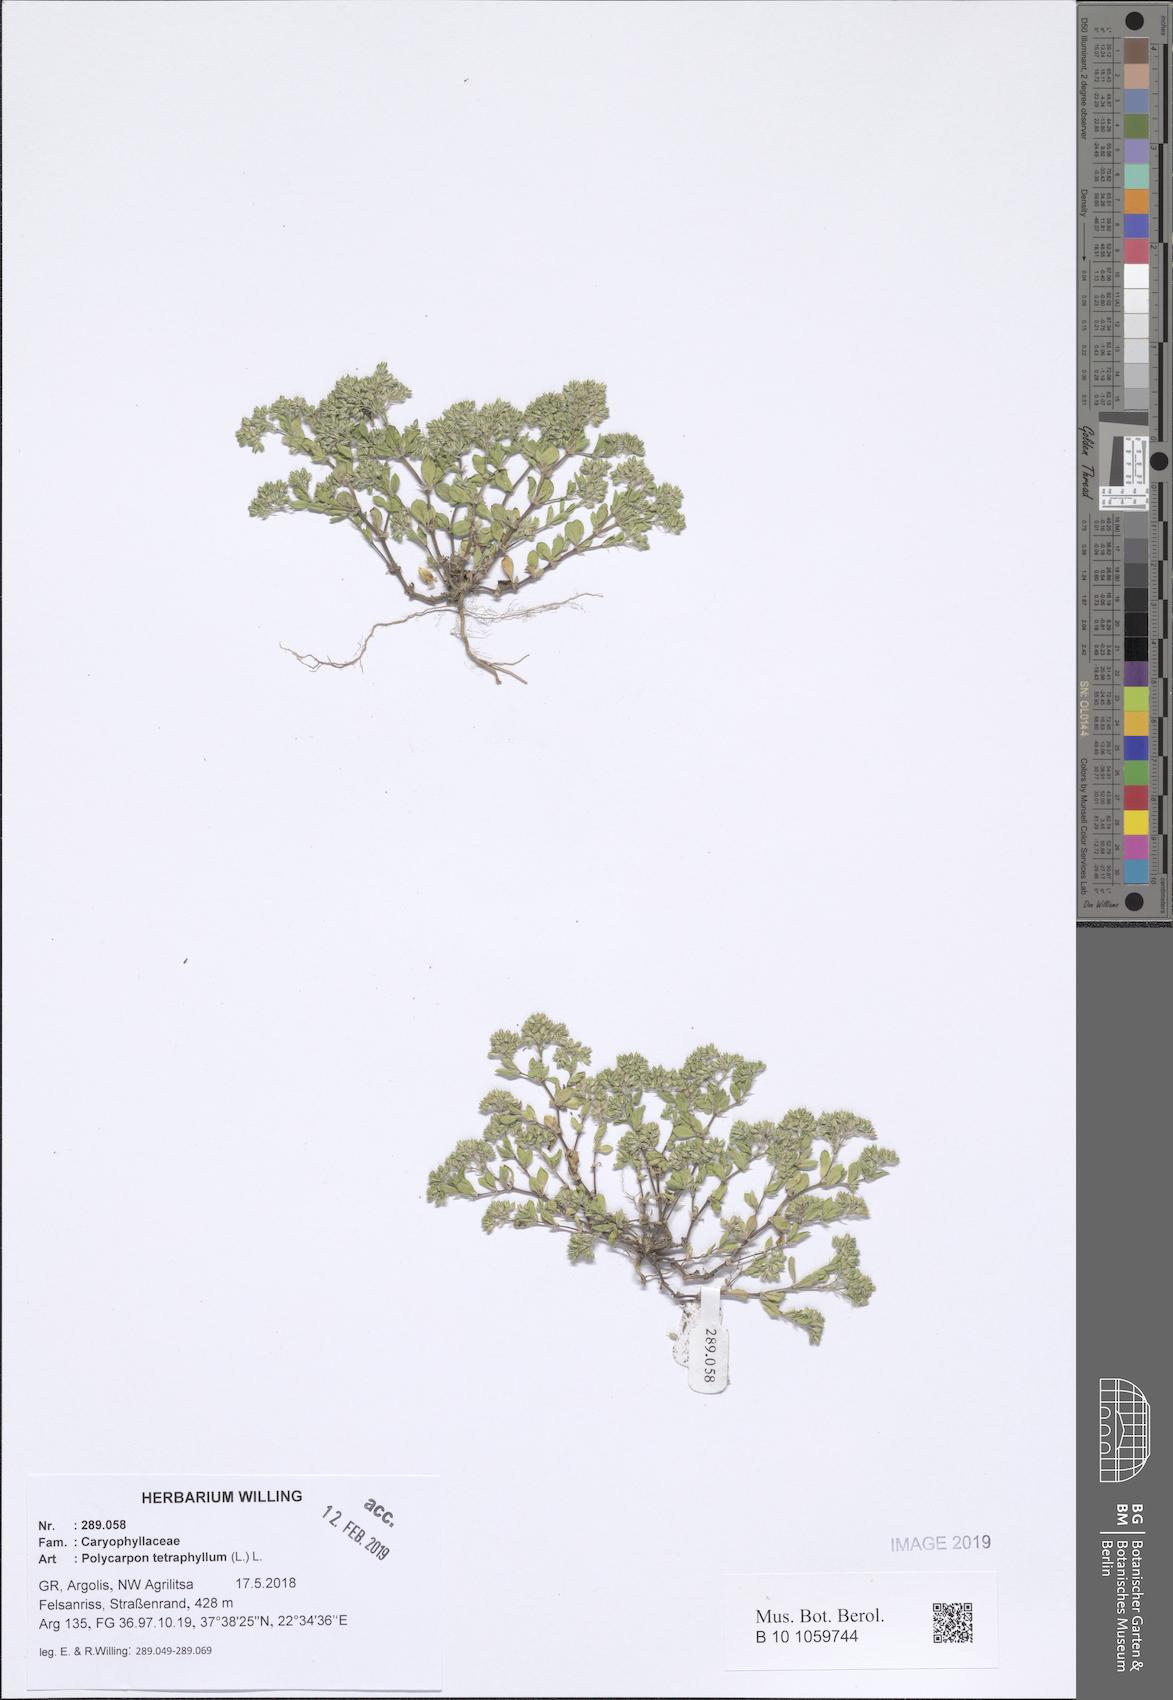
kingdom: Plantae
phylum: Tracheophyta
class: Magnoliopsida
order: Caryophyllales
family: Caryophyllaceae
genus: Polycarpon
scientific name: Polycarpon tetraphyllum
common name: Four-leaved all-seed
